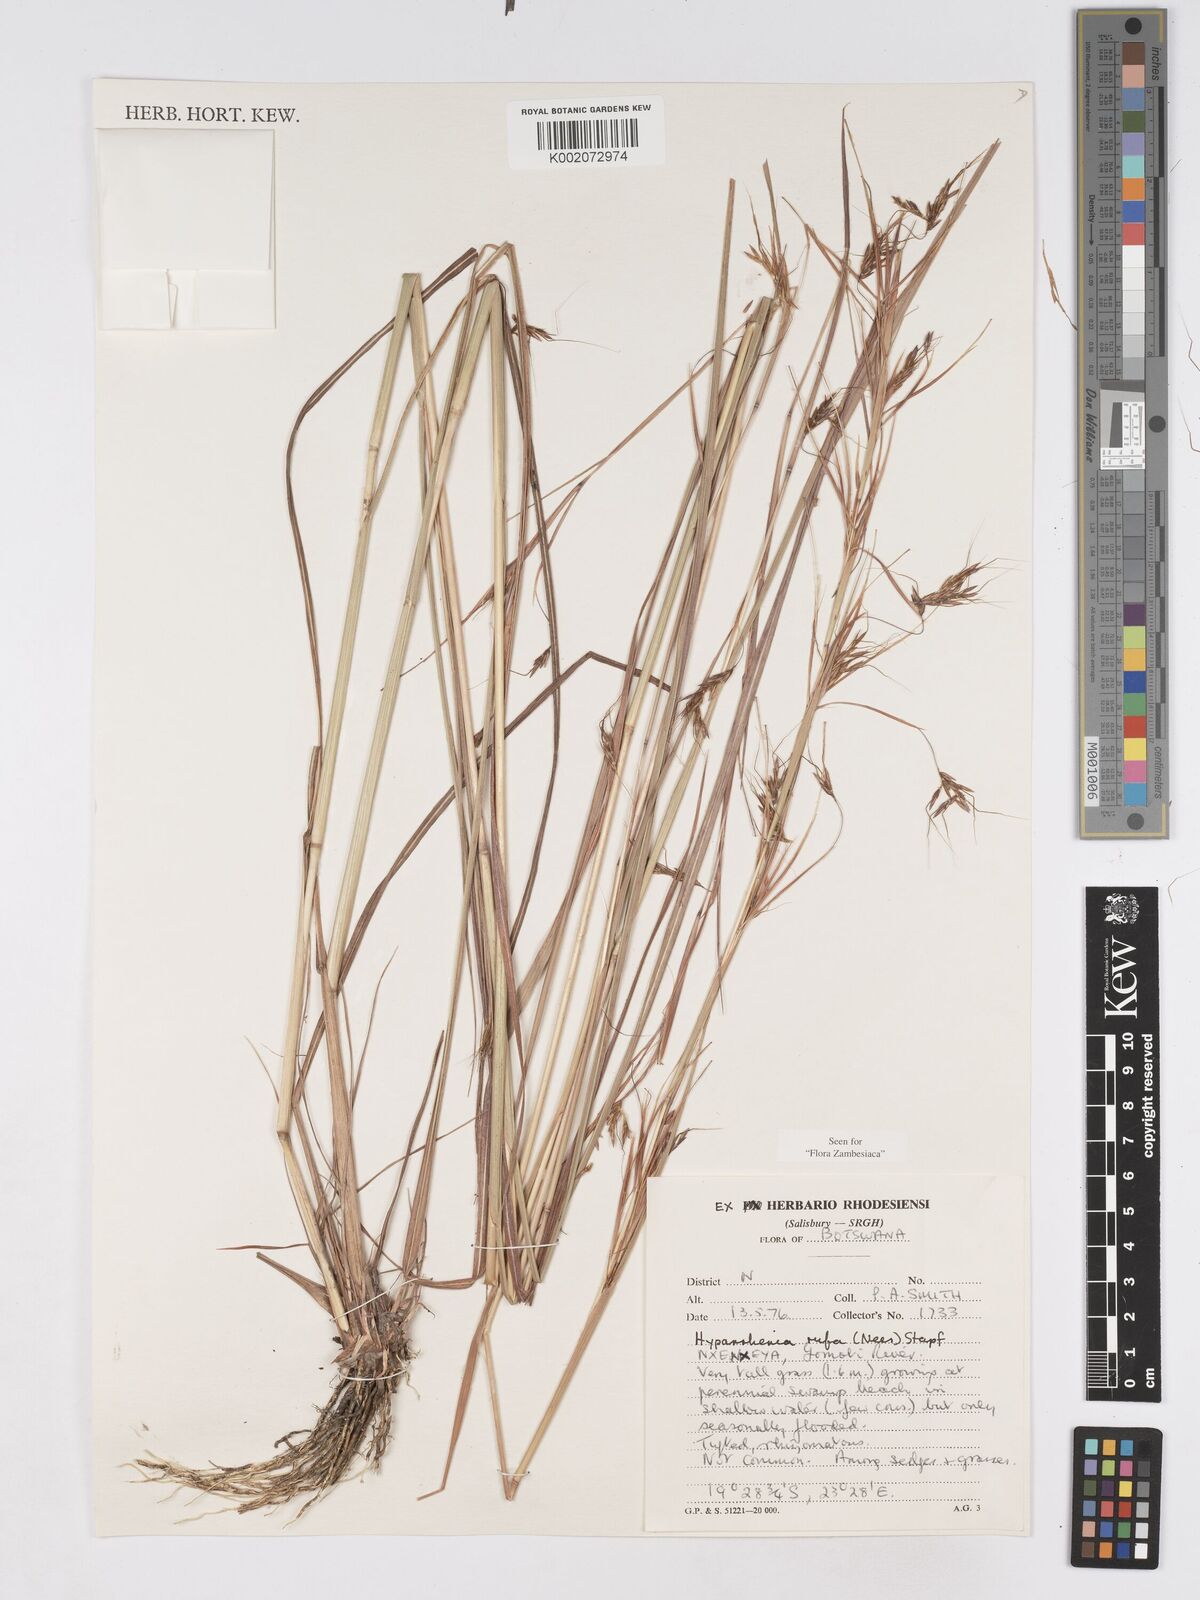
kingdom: Plantae
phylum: Tracheophyta
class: Liliopsida
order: Poales
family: Poaceae
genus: Hyparrhenia
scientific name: Hyparrhenia rufa
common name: Jaraguagrass
